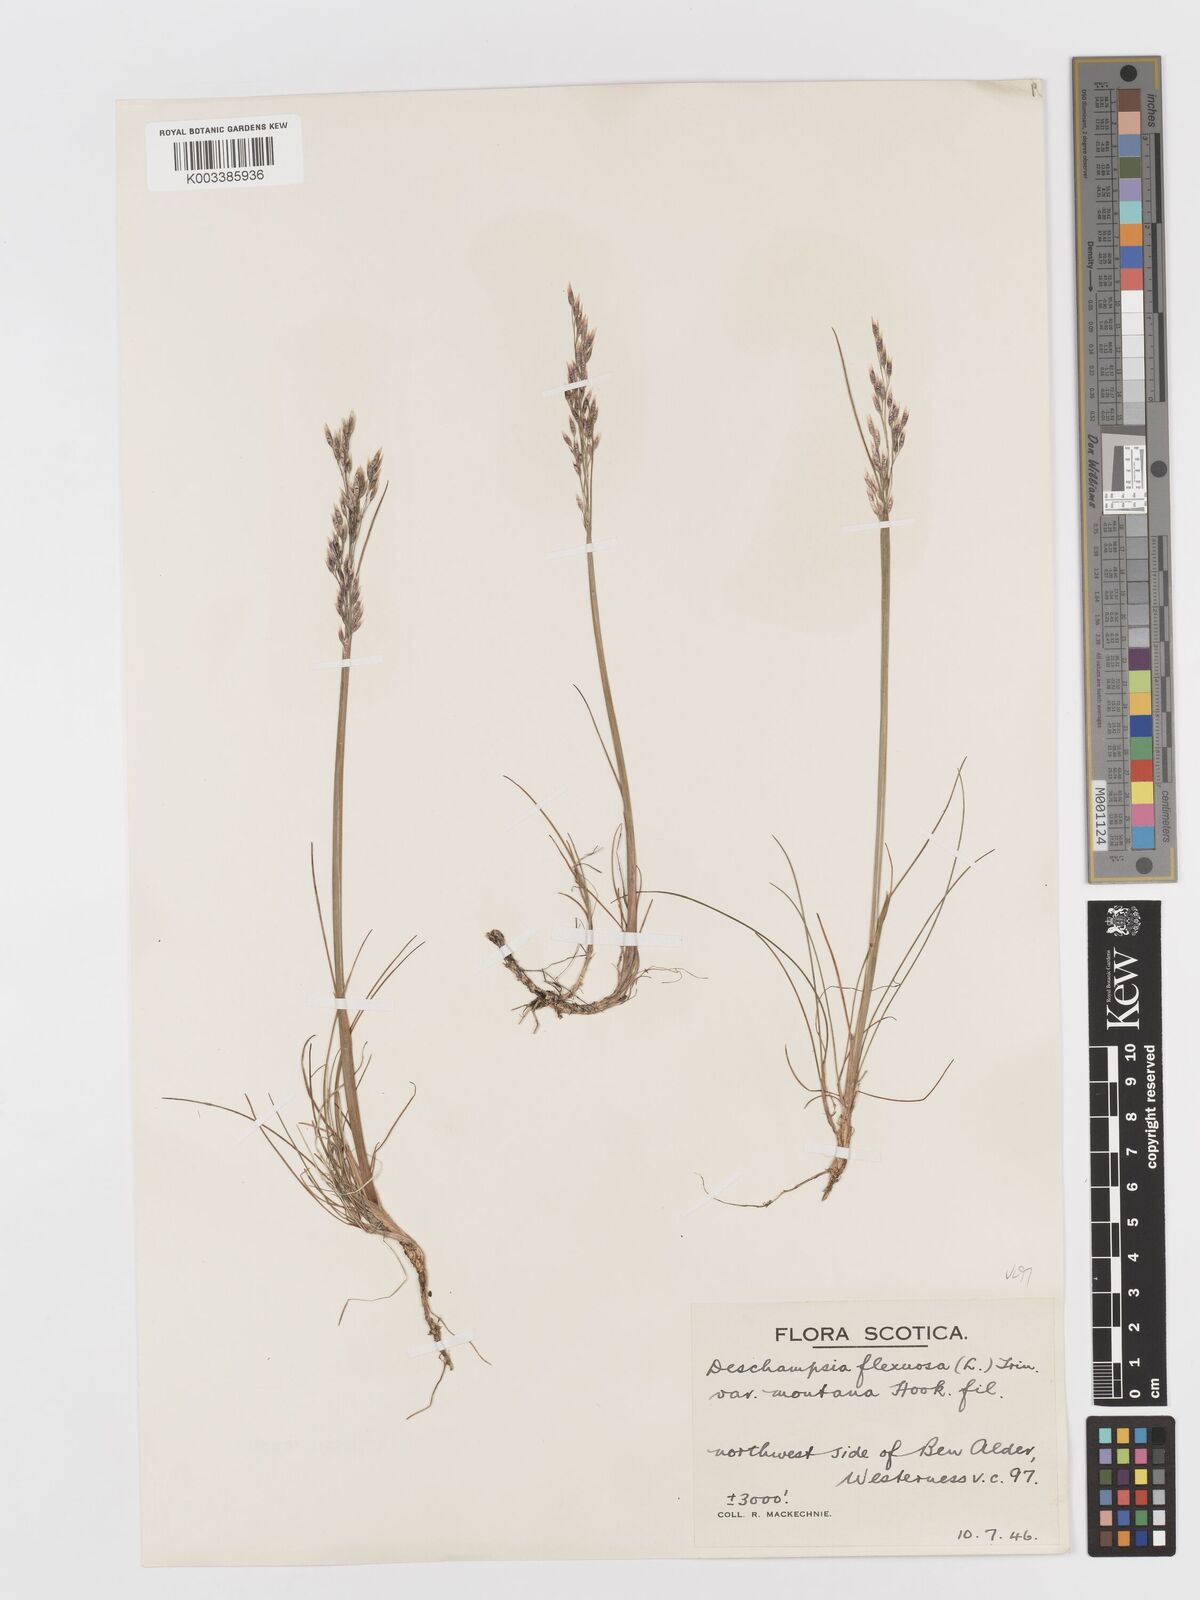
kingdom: Plantae
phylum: Tracheophyta
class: Liliopsida
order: Poales
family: Poaceae
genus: Avenella
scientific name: Avenella flexuosa
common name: Wavy hairgrass
